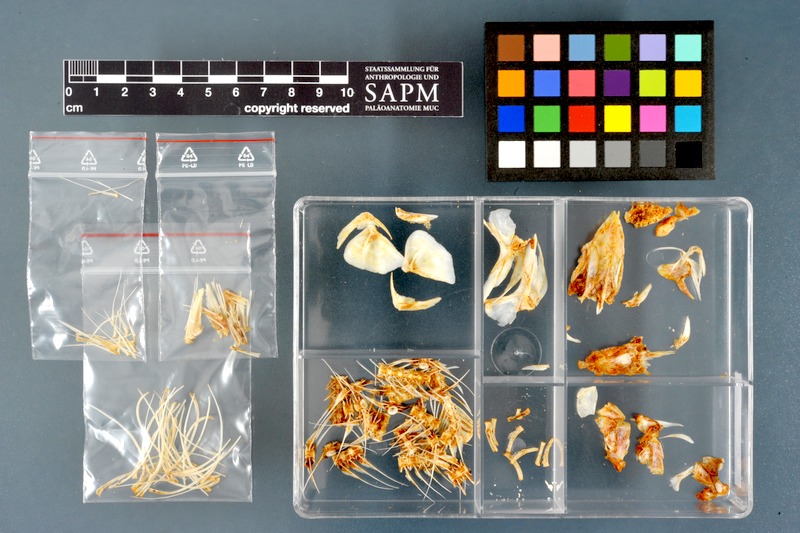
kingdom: Animalia
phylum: Chordata
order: Osteoglossiformes
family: Mormyridae
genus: Hyperopisus
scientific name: Hyperopisus bebe
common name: Ngai
